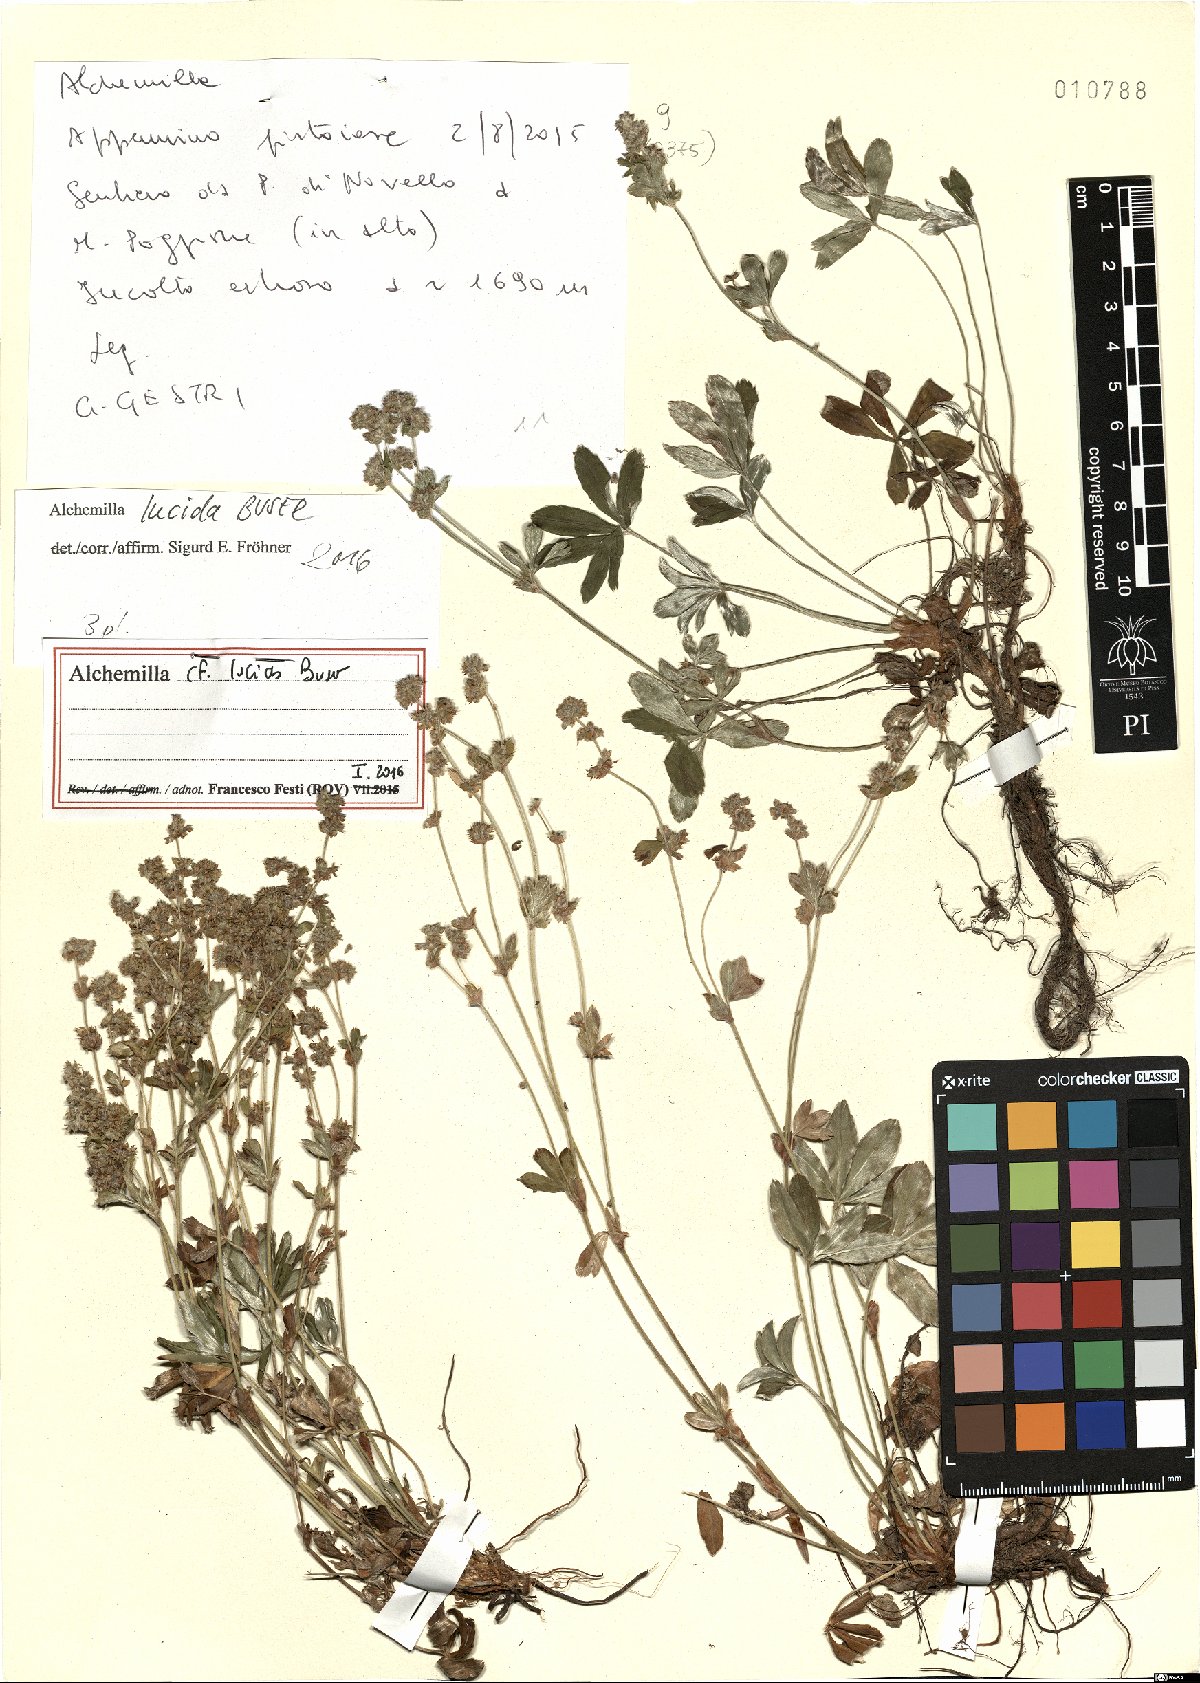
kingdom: Plantae
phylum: Tracheophyta
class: Magnoliopsida
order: Rosales
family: Rosaceae
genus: Alchemilla
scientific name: Alchemilla lucida
